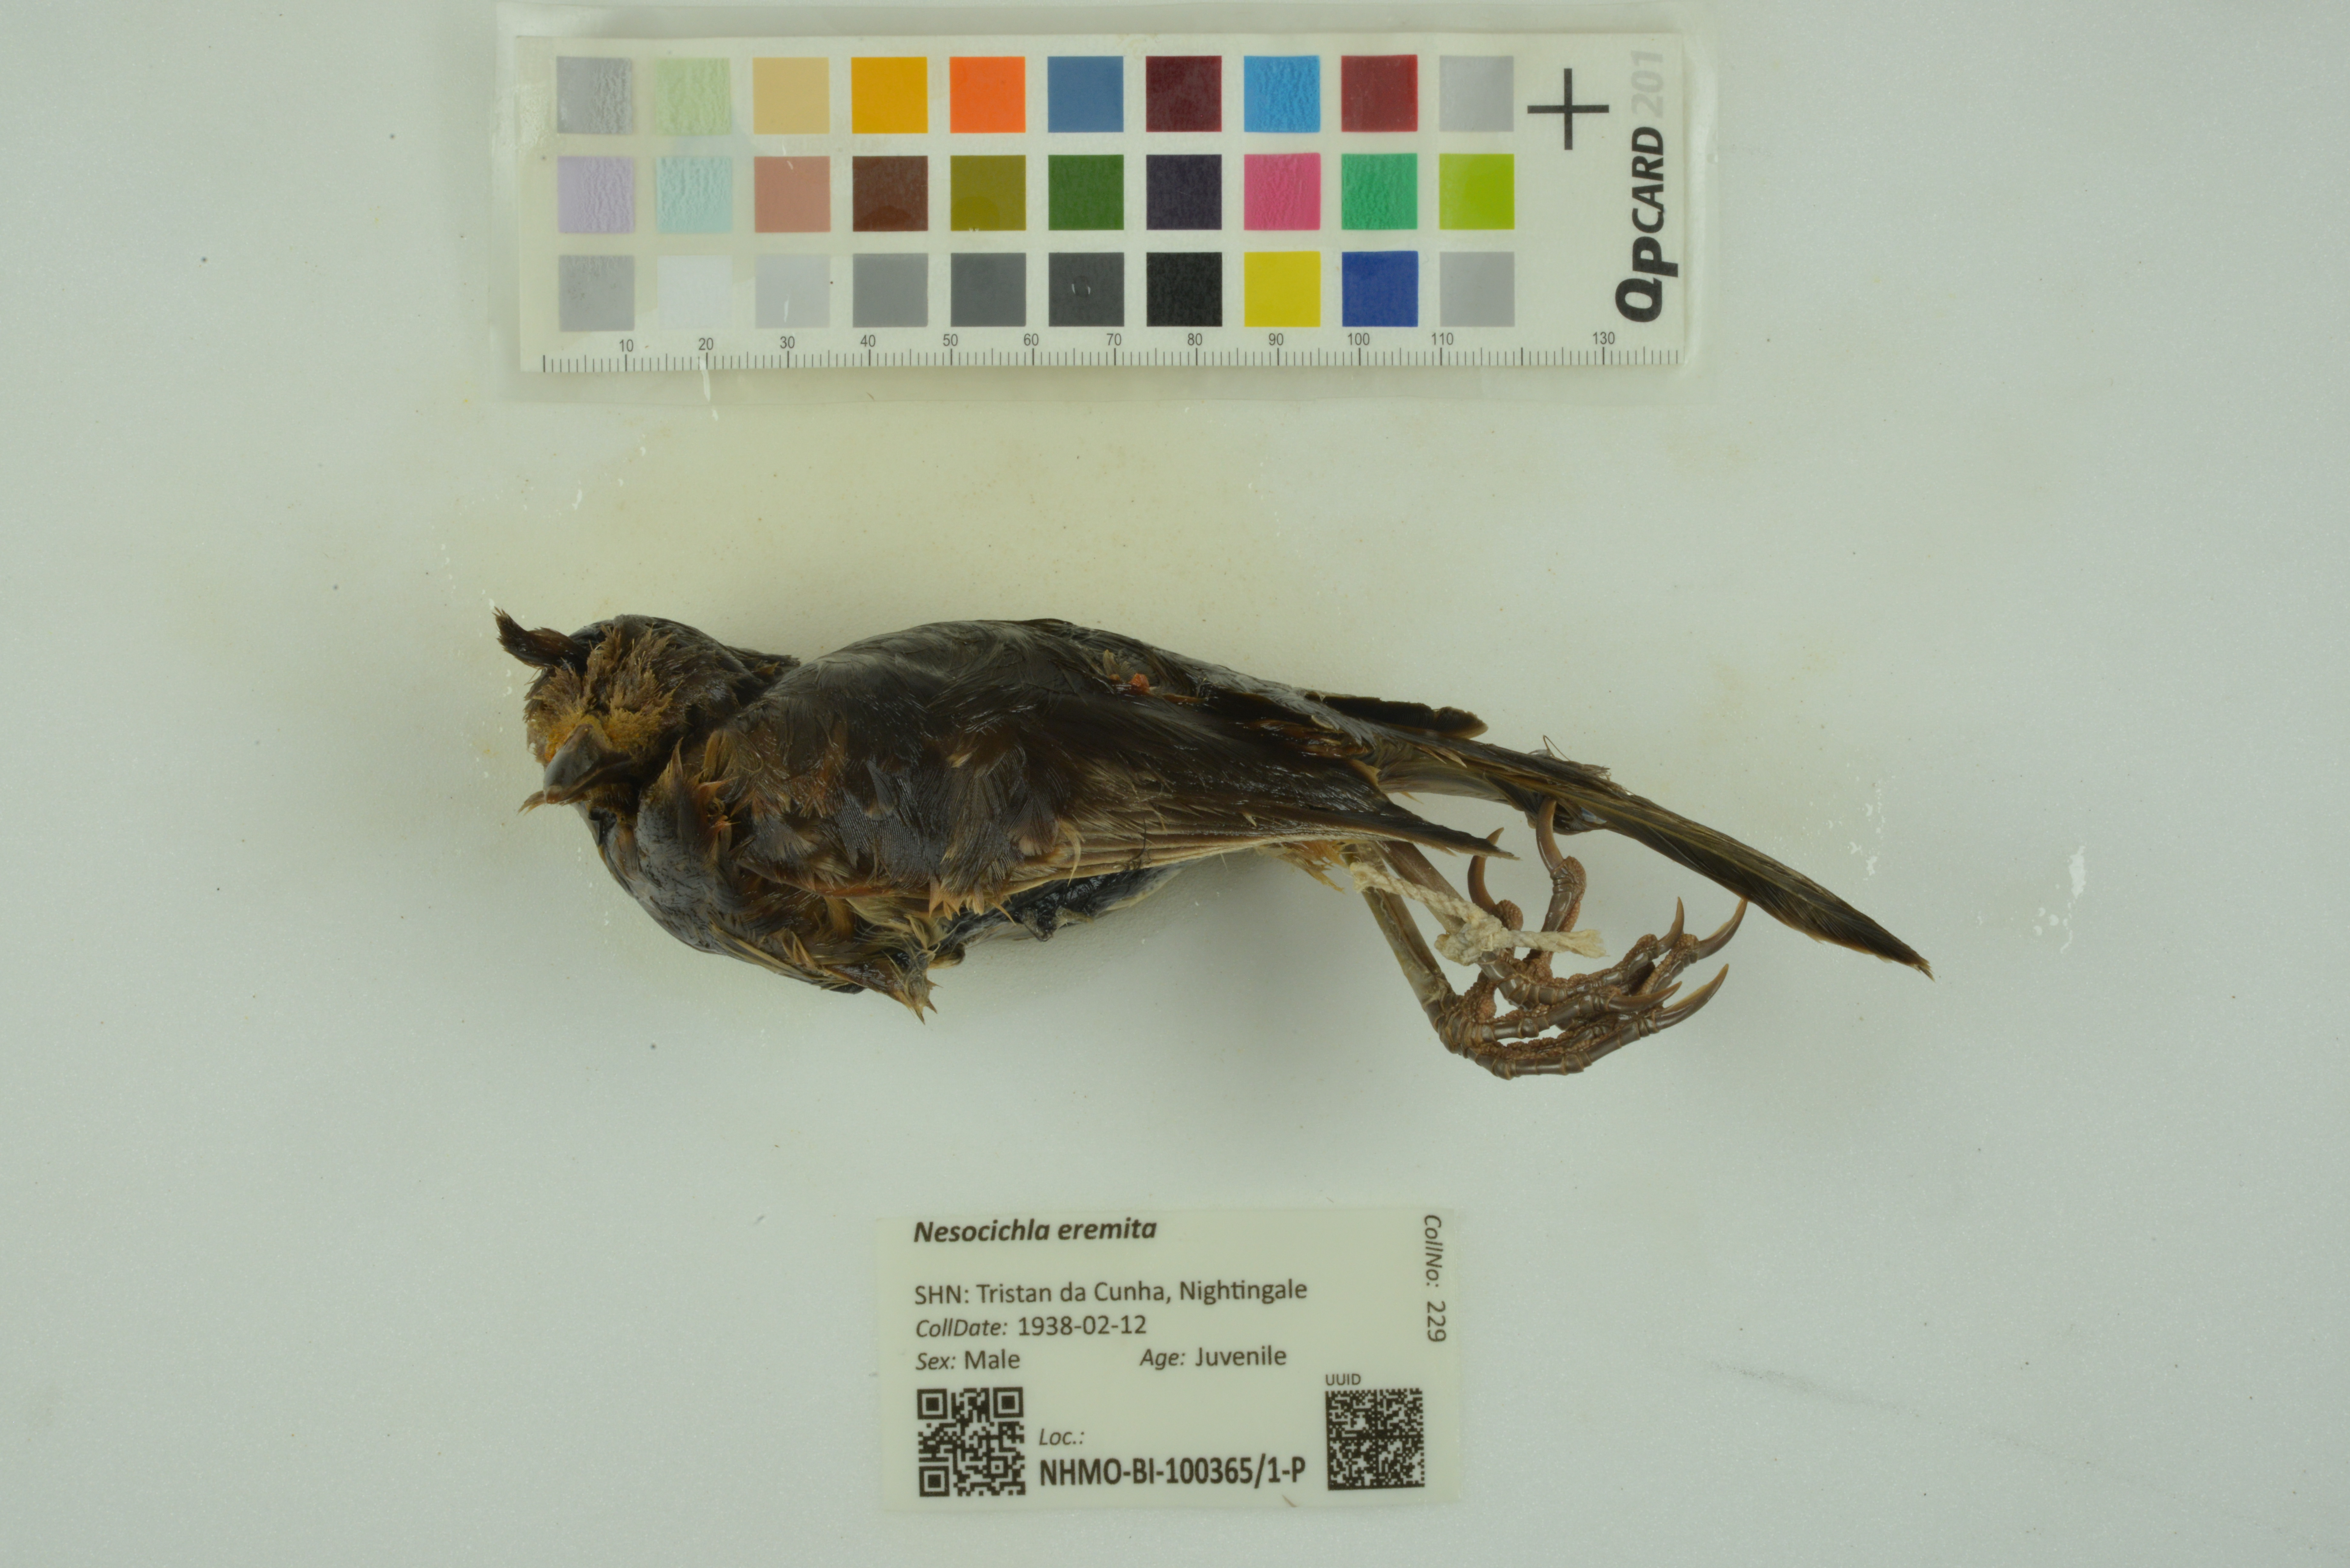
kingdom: Animalia
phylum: Chordata
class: Aves
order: Passeriformes
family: Turdidae
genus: Nesocichla
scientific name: Nesocichla eremita
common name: Tristan thrush
